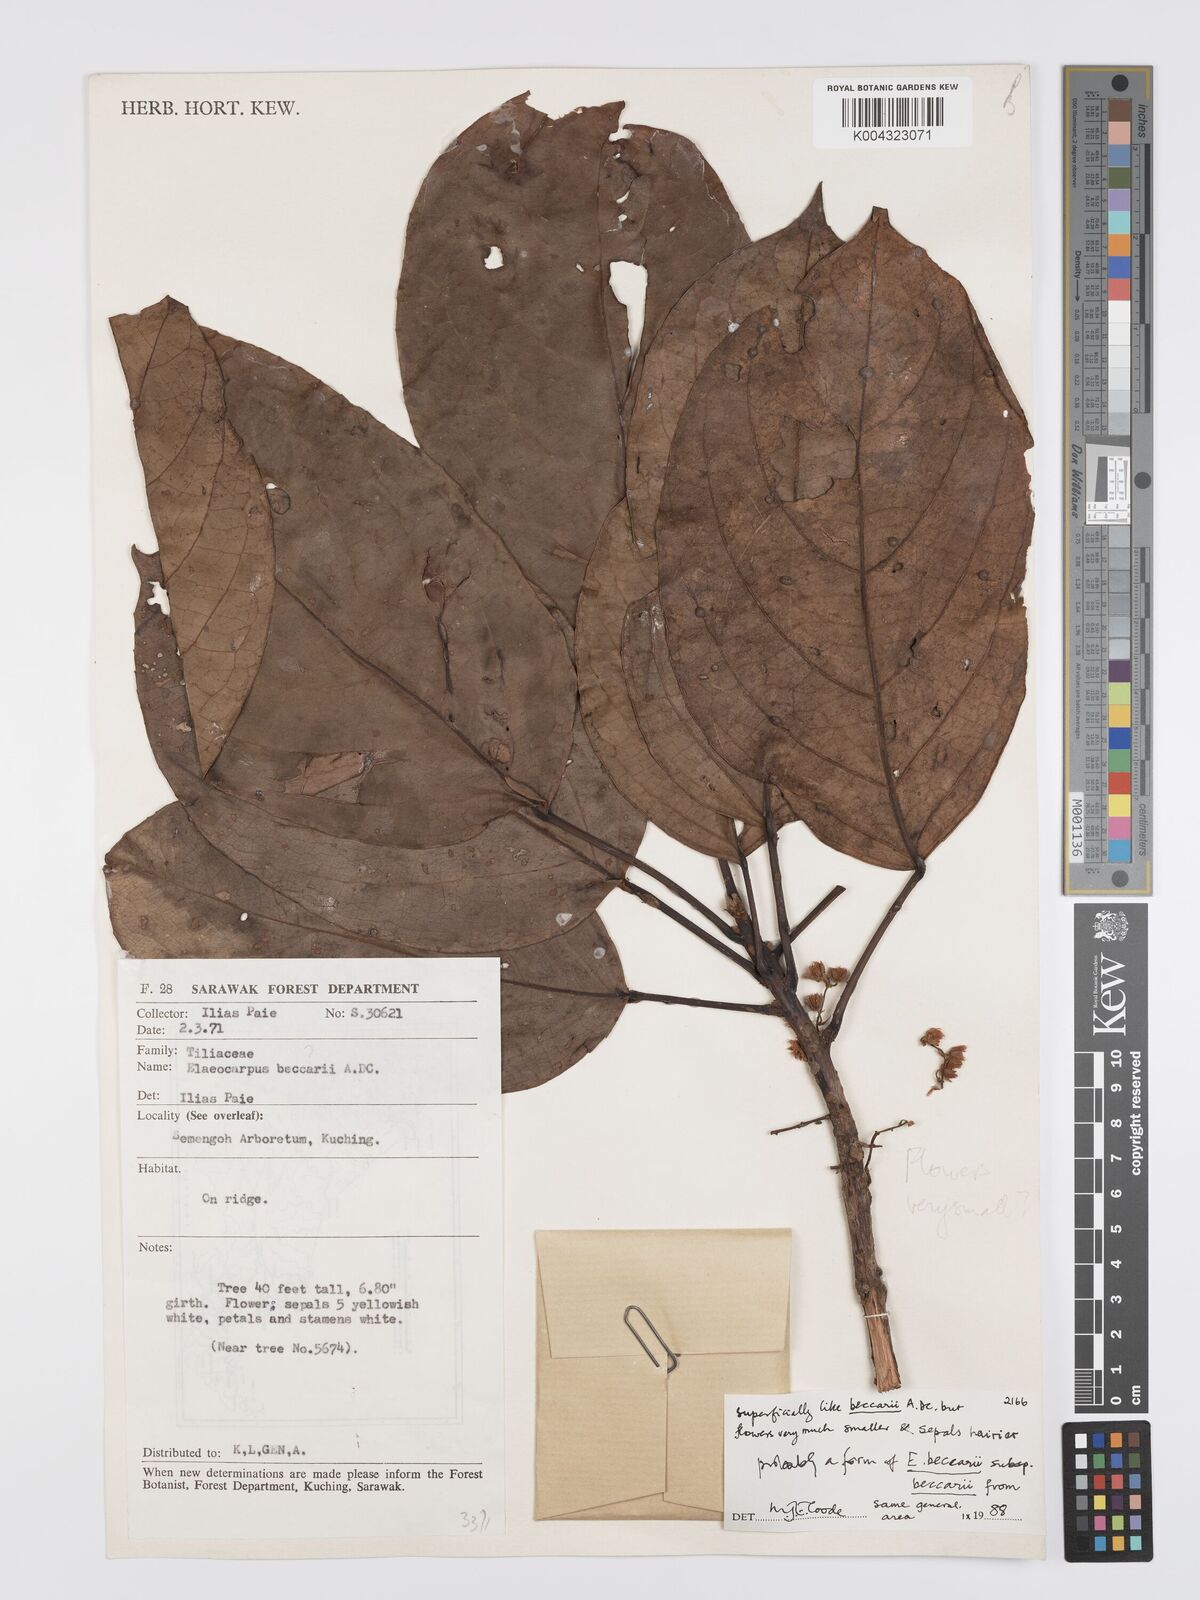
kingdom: Plantae
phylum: Tracheophyta
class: Magnoliopsida
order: Oxalidales
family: Elaeocarpaceae
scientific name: Elaeocarpaceae
